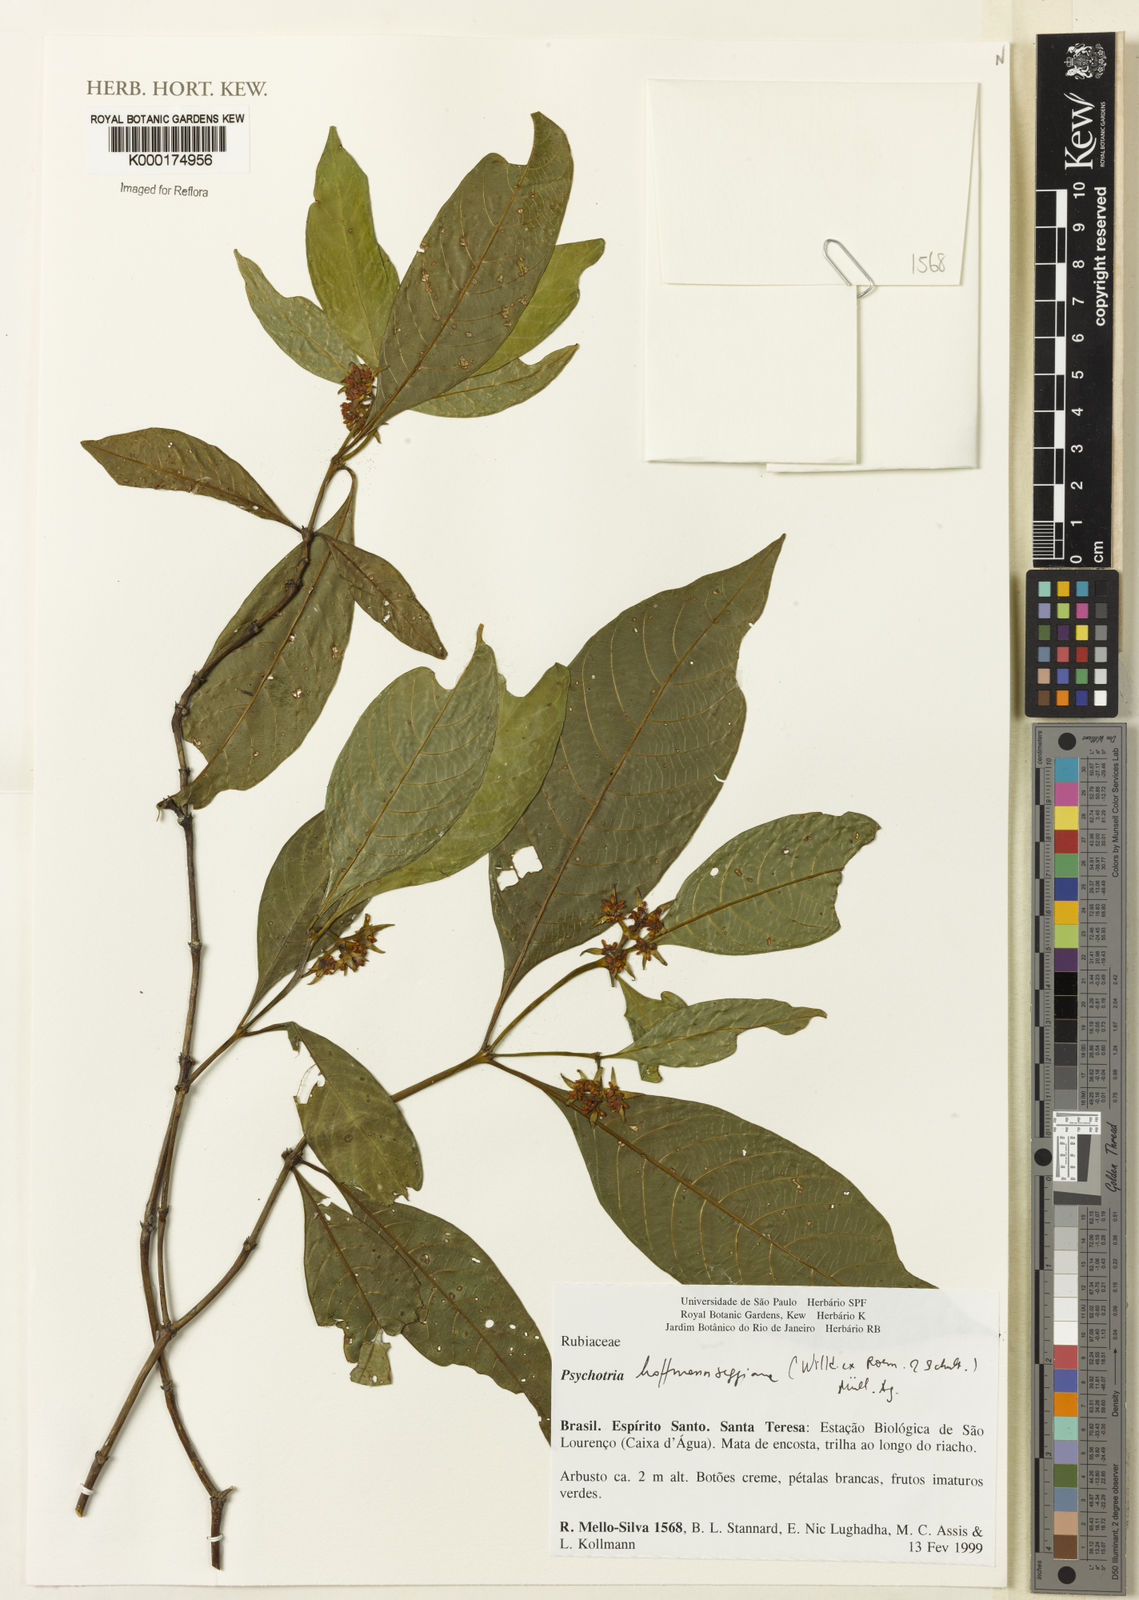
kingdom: Plantae
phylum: Tracheophyta
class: Magnoliopsida
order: Gentianales
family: Rubiaceae
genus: Psychotria
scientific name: Psychotria
